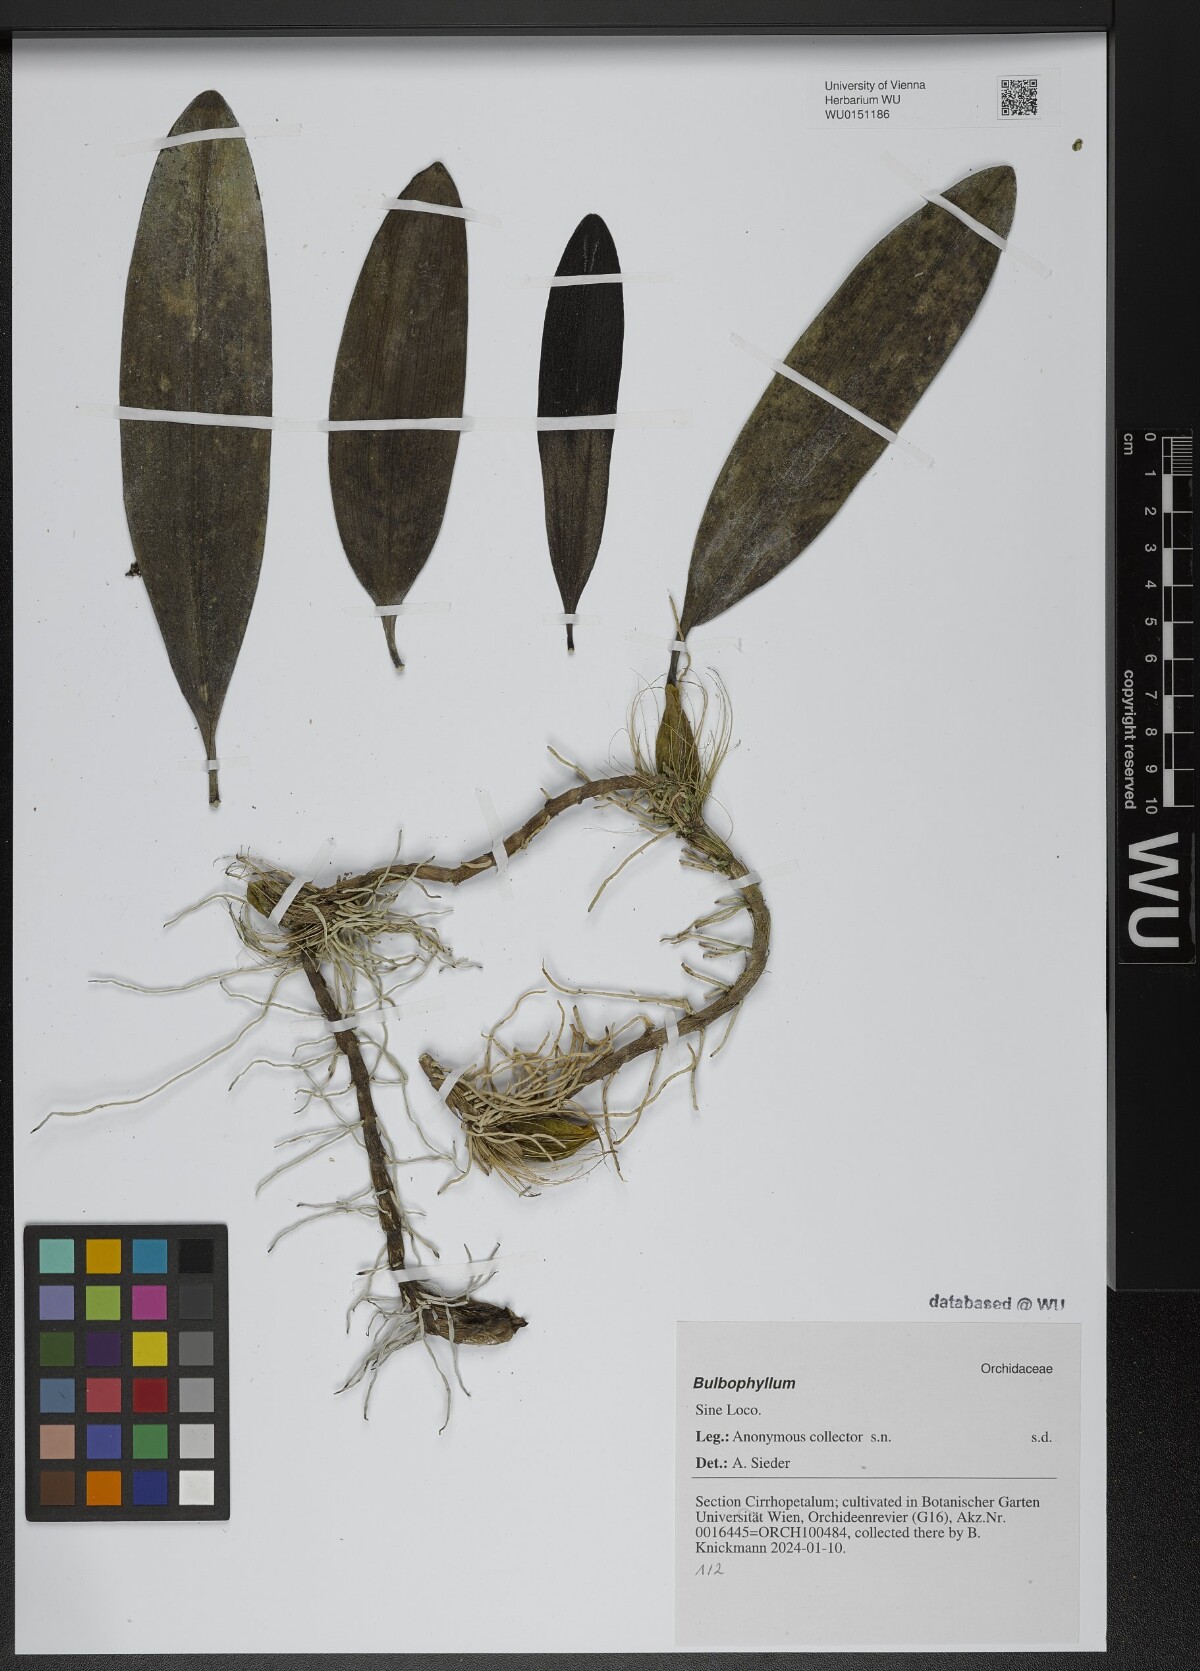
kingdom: Plantae
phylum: Tracheophyta
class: Liliopsida
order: Asparagales
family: Orchidaceae
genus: Bulbophyllum
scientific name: Bulbophyllum
